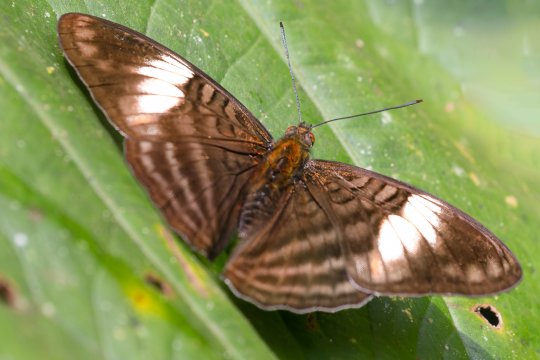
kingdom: Animalia
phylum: Arthropoda
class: Insecta
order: Lepidoptera
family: Nymphalidae
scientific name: Nymphalidae
